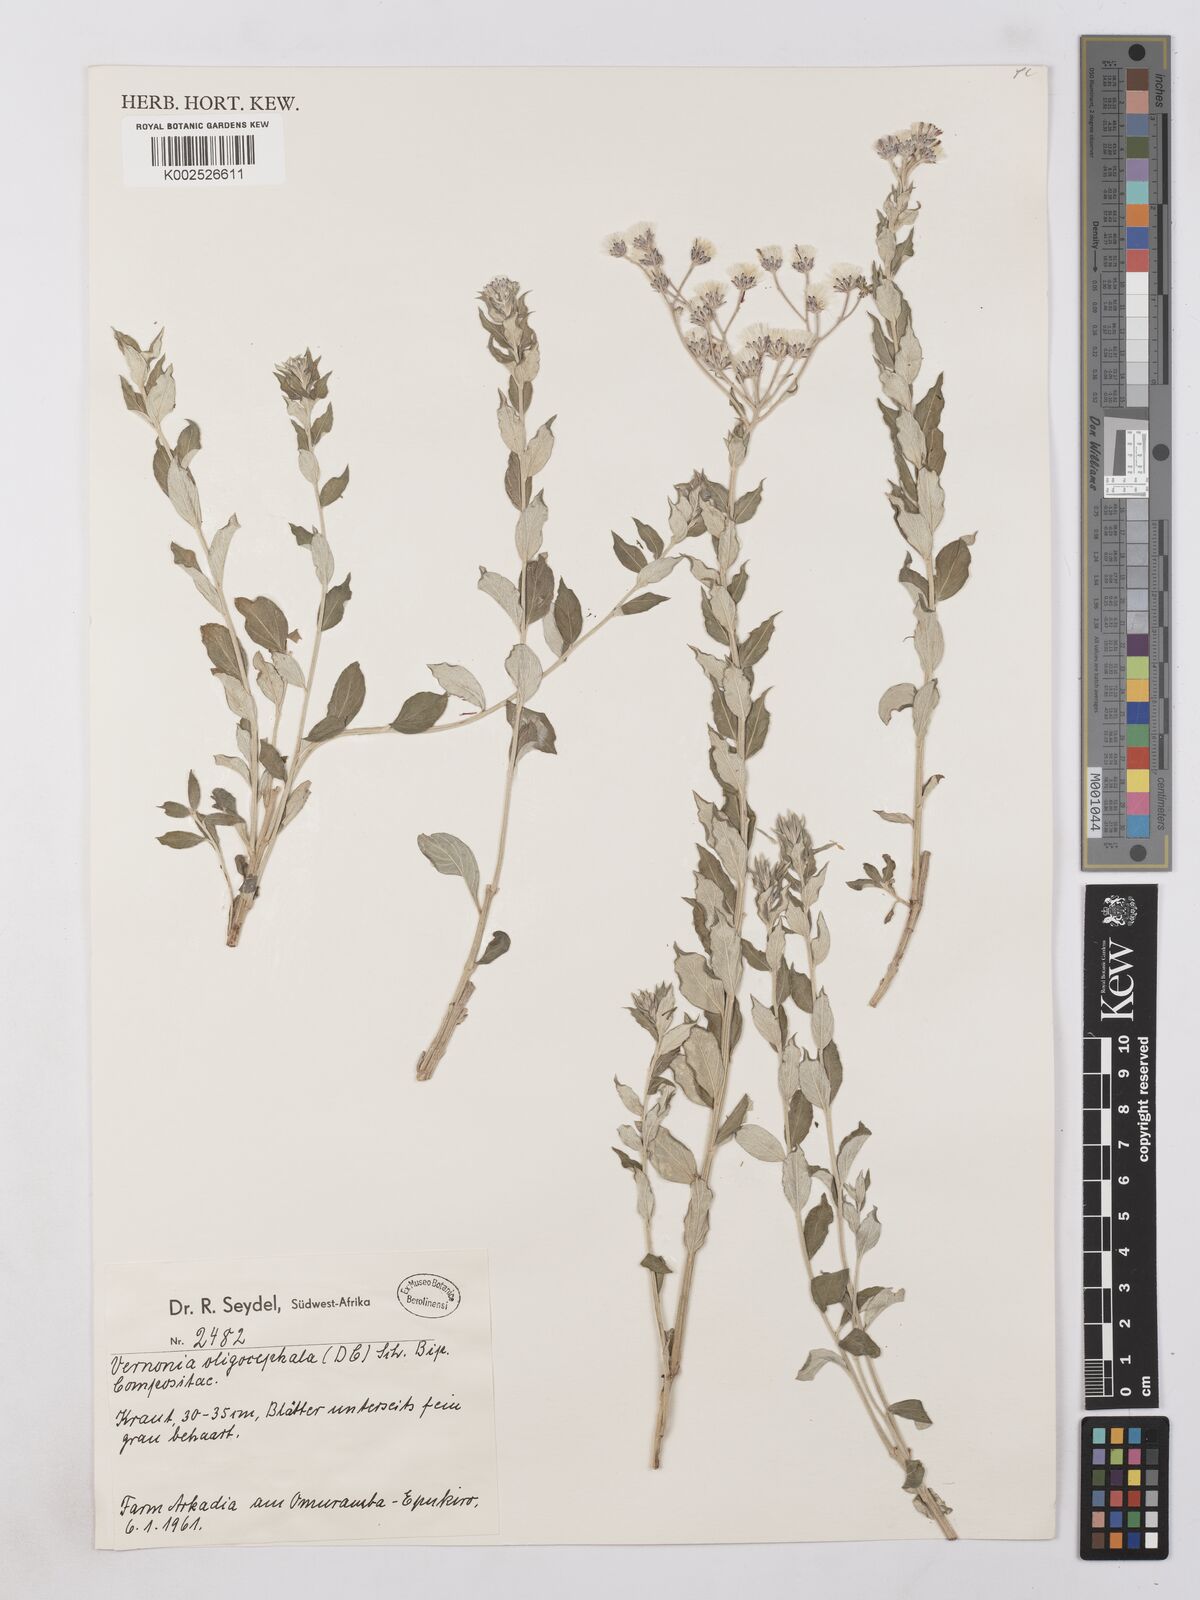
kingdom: Plantae
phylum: Tracheophyta
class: Magnoliopsida
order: Asterales
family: Asteraceae
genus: Hilliardiella
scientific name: Hilliardiella oligocephala
